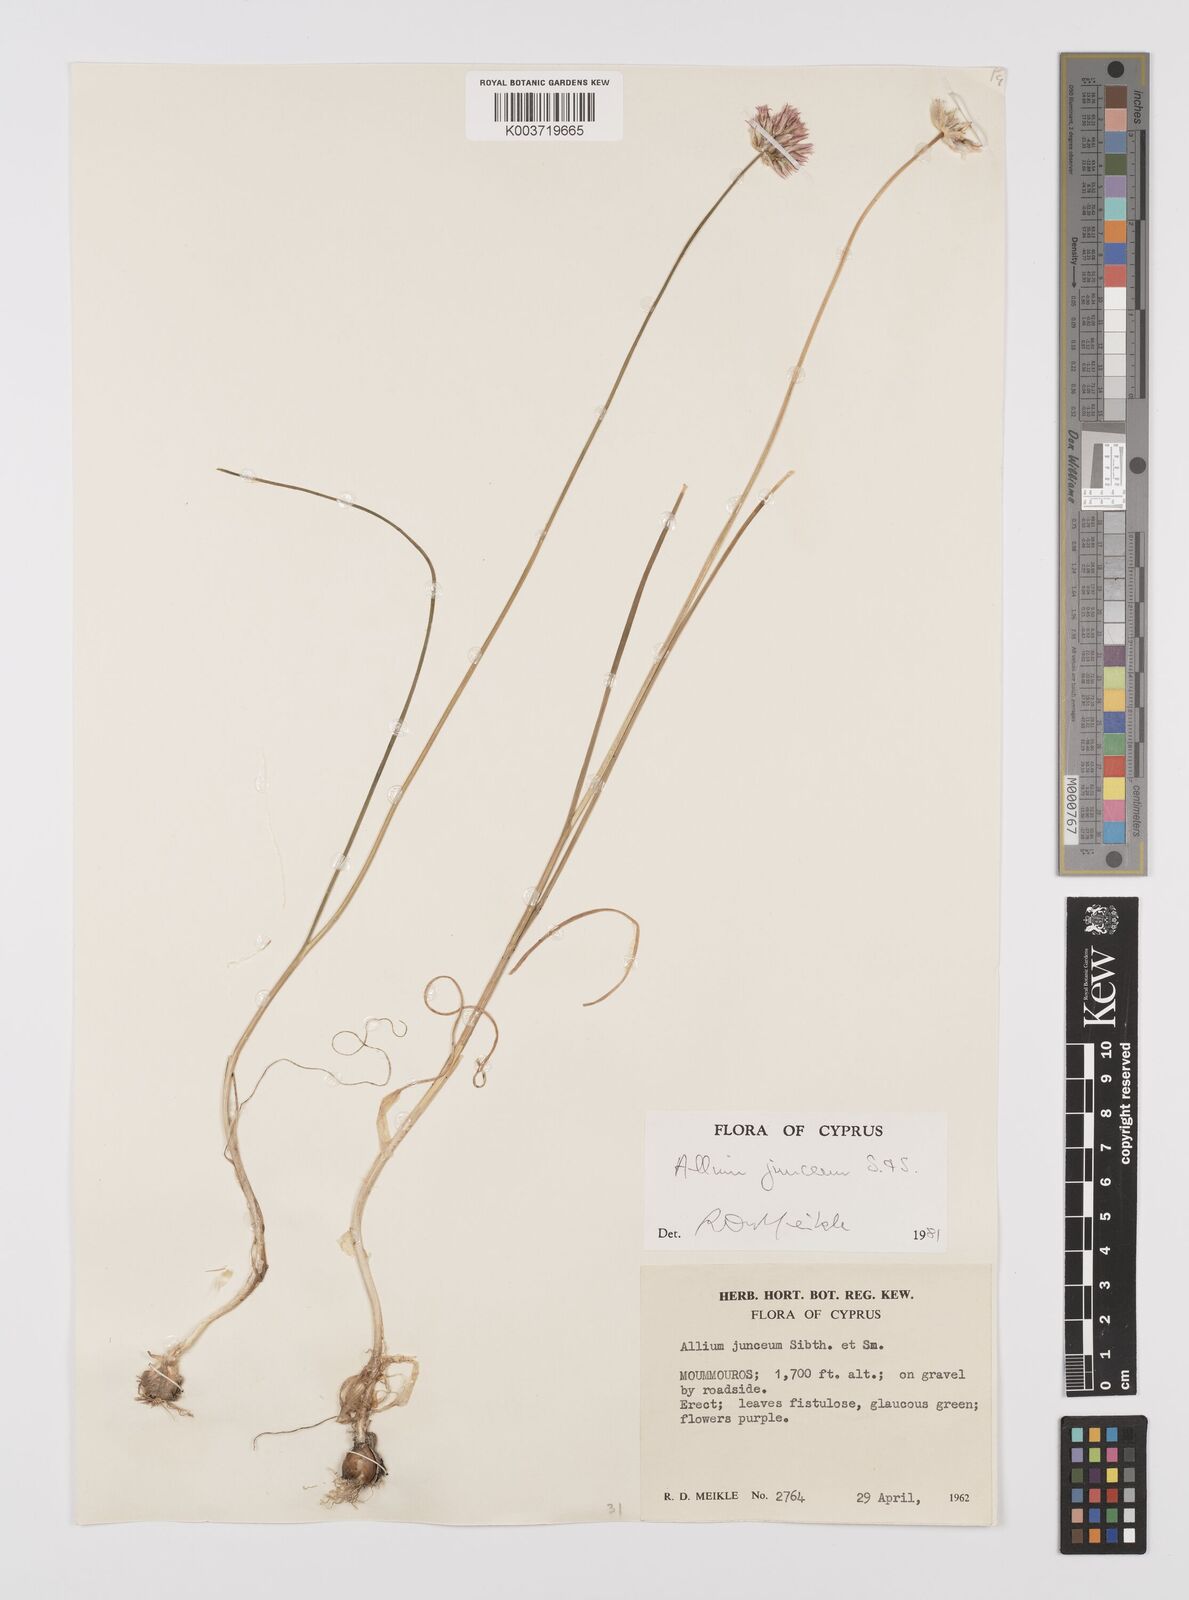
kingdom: Plantae
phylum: Tracheophyta
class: Liliopsida
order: Asparagales
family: Amaryllidaceae
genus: Allium
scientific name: Allium junceum
